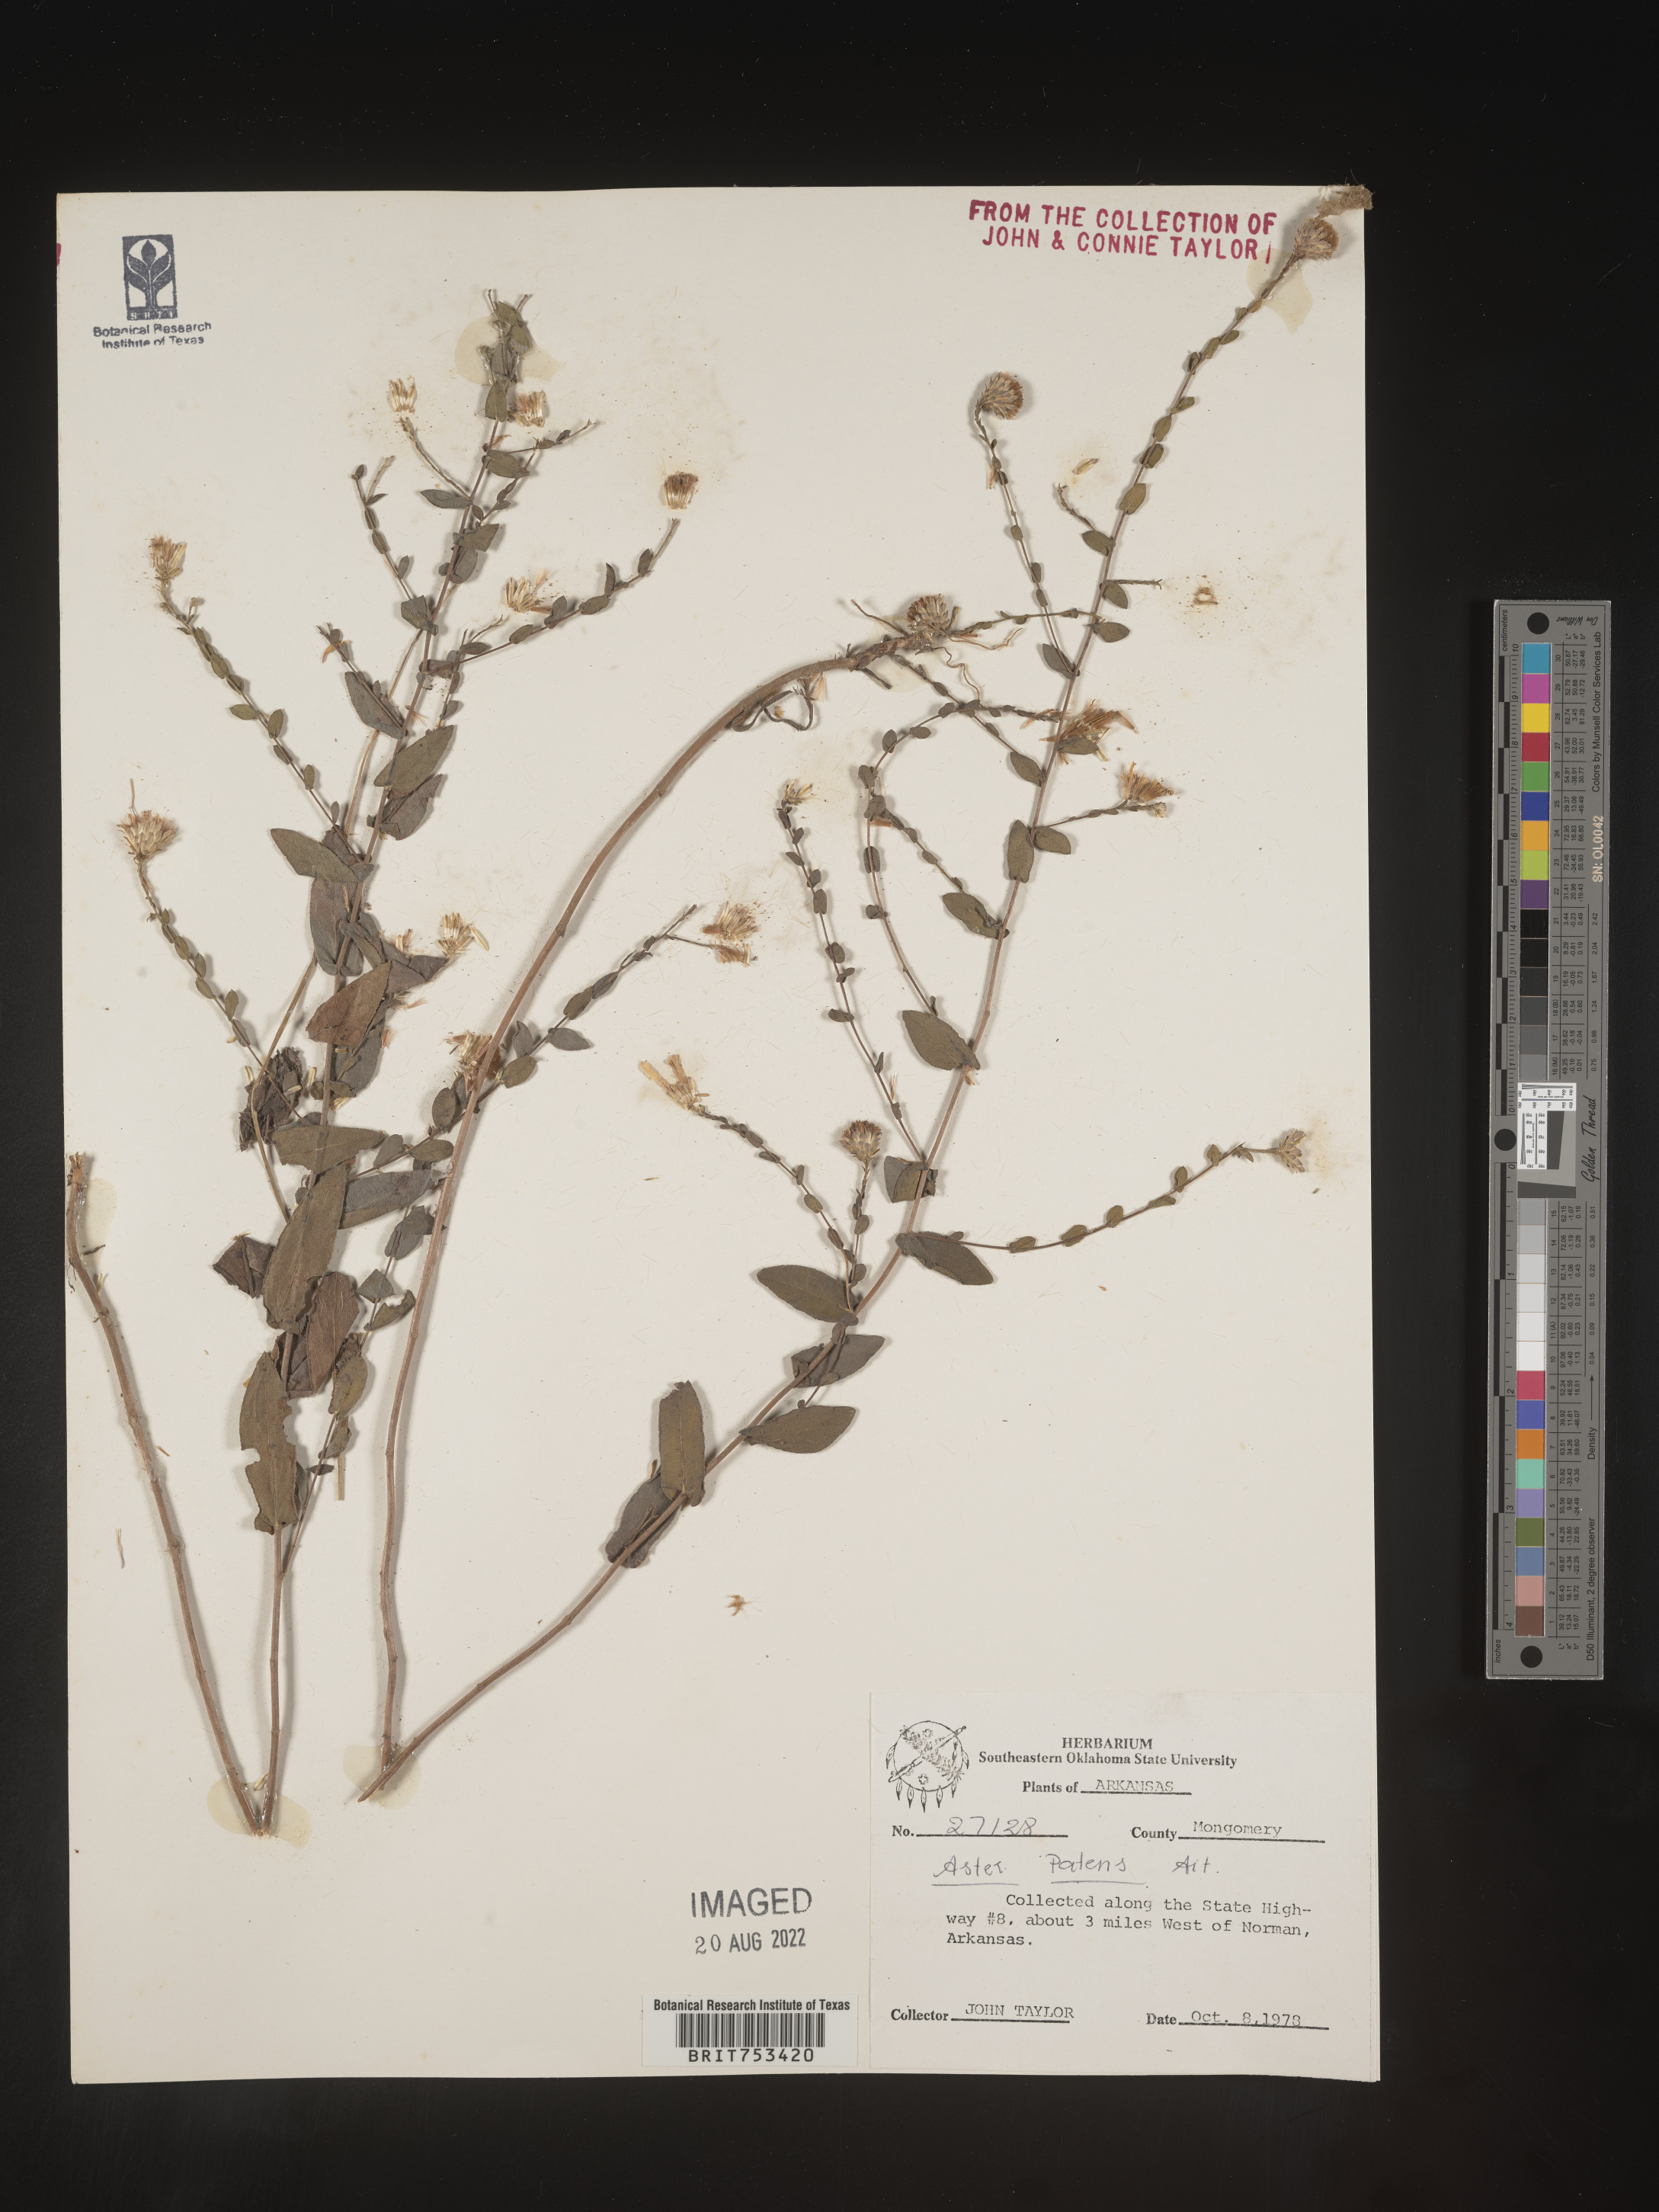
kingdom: Plantae
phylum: Tracheophyta
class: Magnoliopsida
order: Asterales
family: Asteraceae
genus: Symphyotrichum
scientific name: Symphyotrichum patens
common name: Late purple aster
